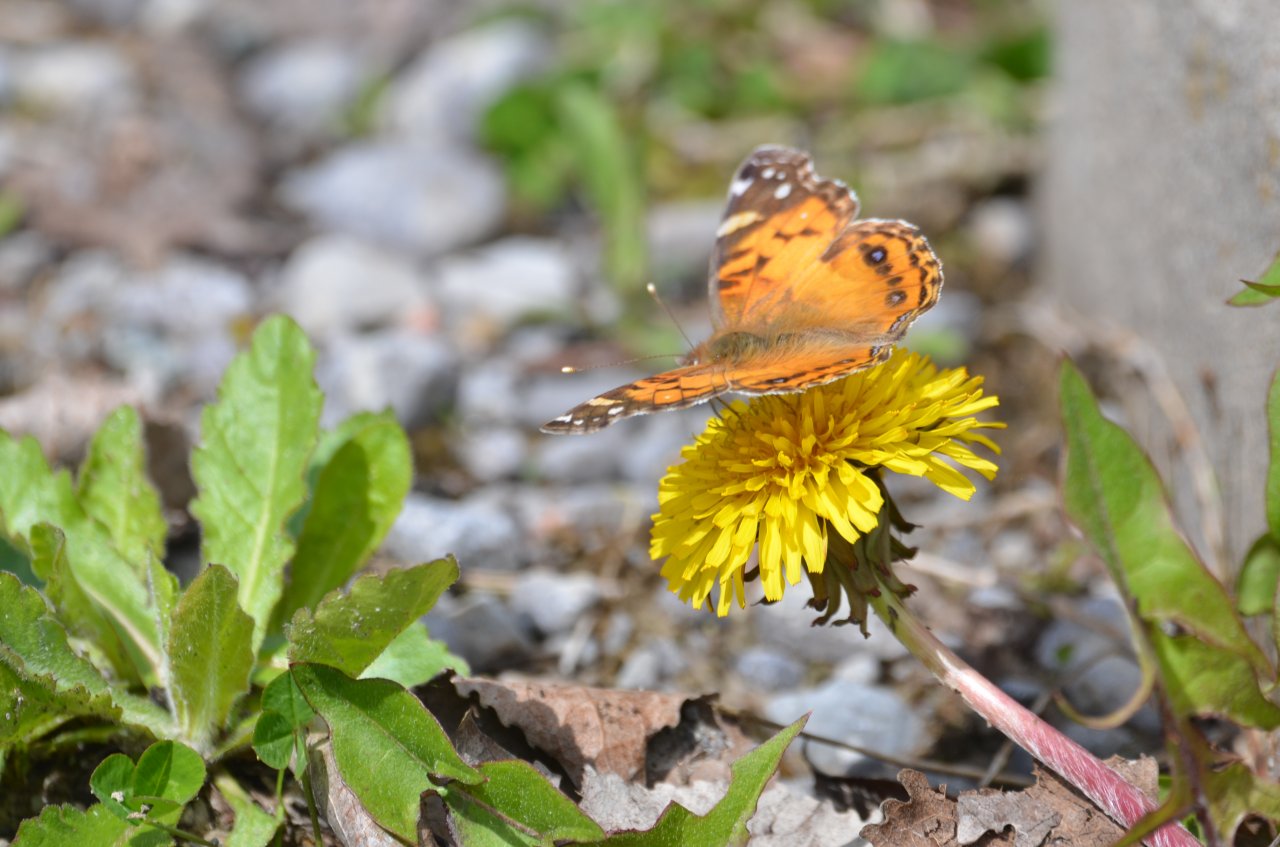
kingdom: Animalia
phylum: Arthropoda
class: Insecta
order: Lepidoptera
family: Nymphalidae
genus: Vanessa
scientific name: Vanessa virginiensis
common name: American Lady
